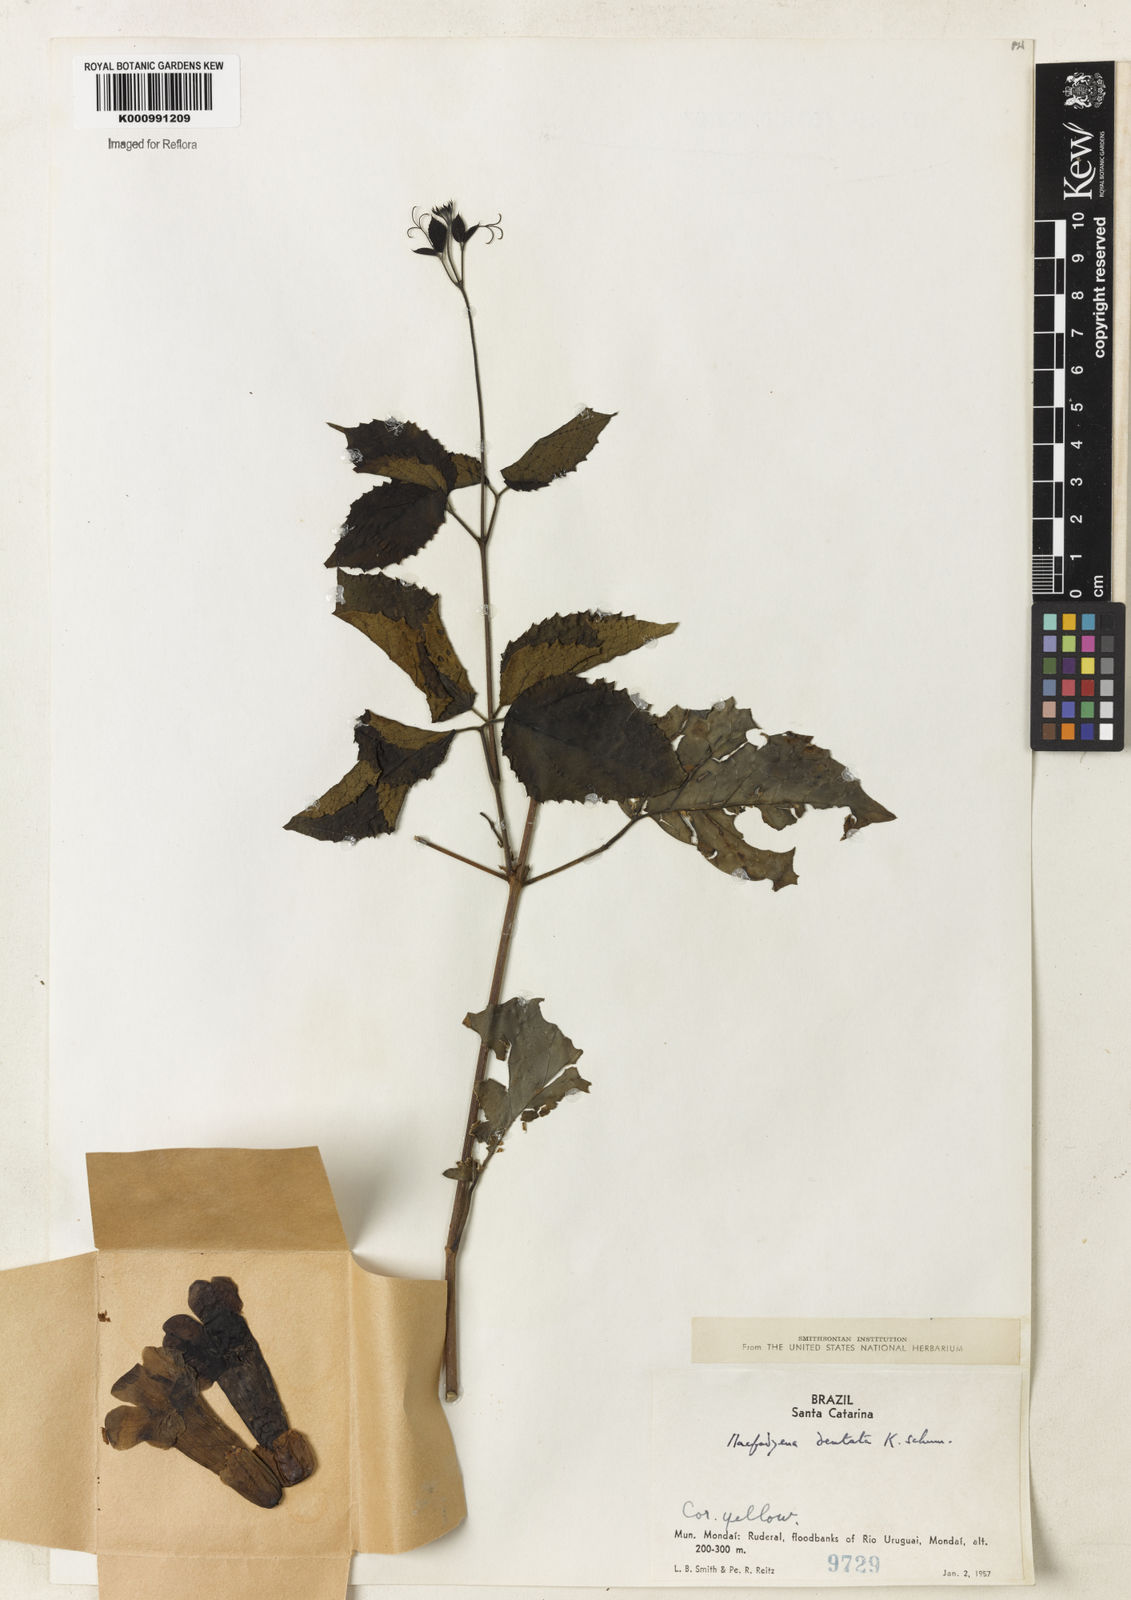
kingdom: Plantae
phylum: Tracheophyta
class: Magnoliopsida
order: Lamiales
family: Bignoniaceae
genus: Dolichandra
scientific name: Dolichandra dentata
